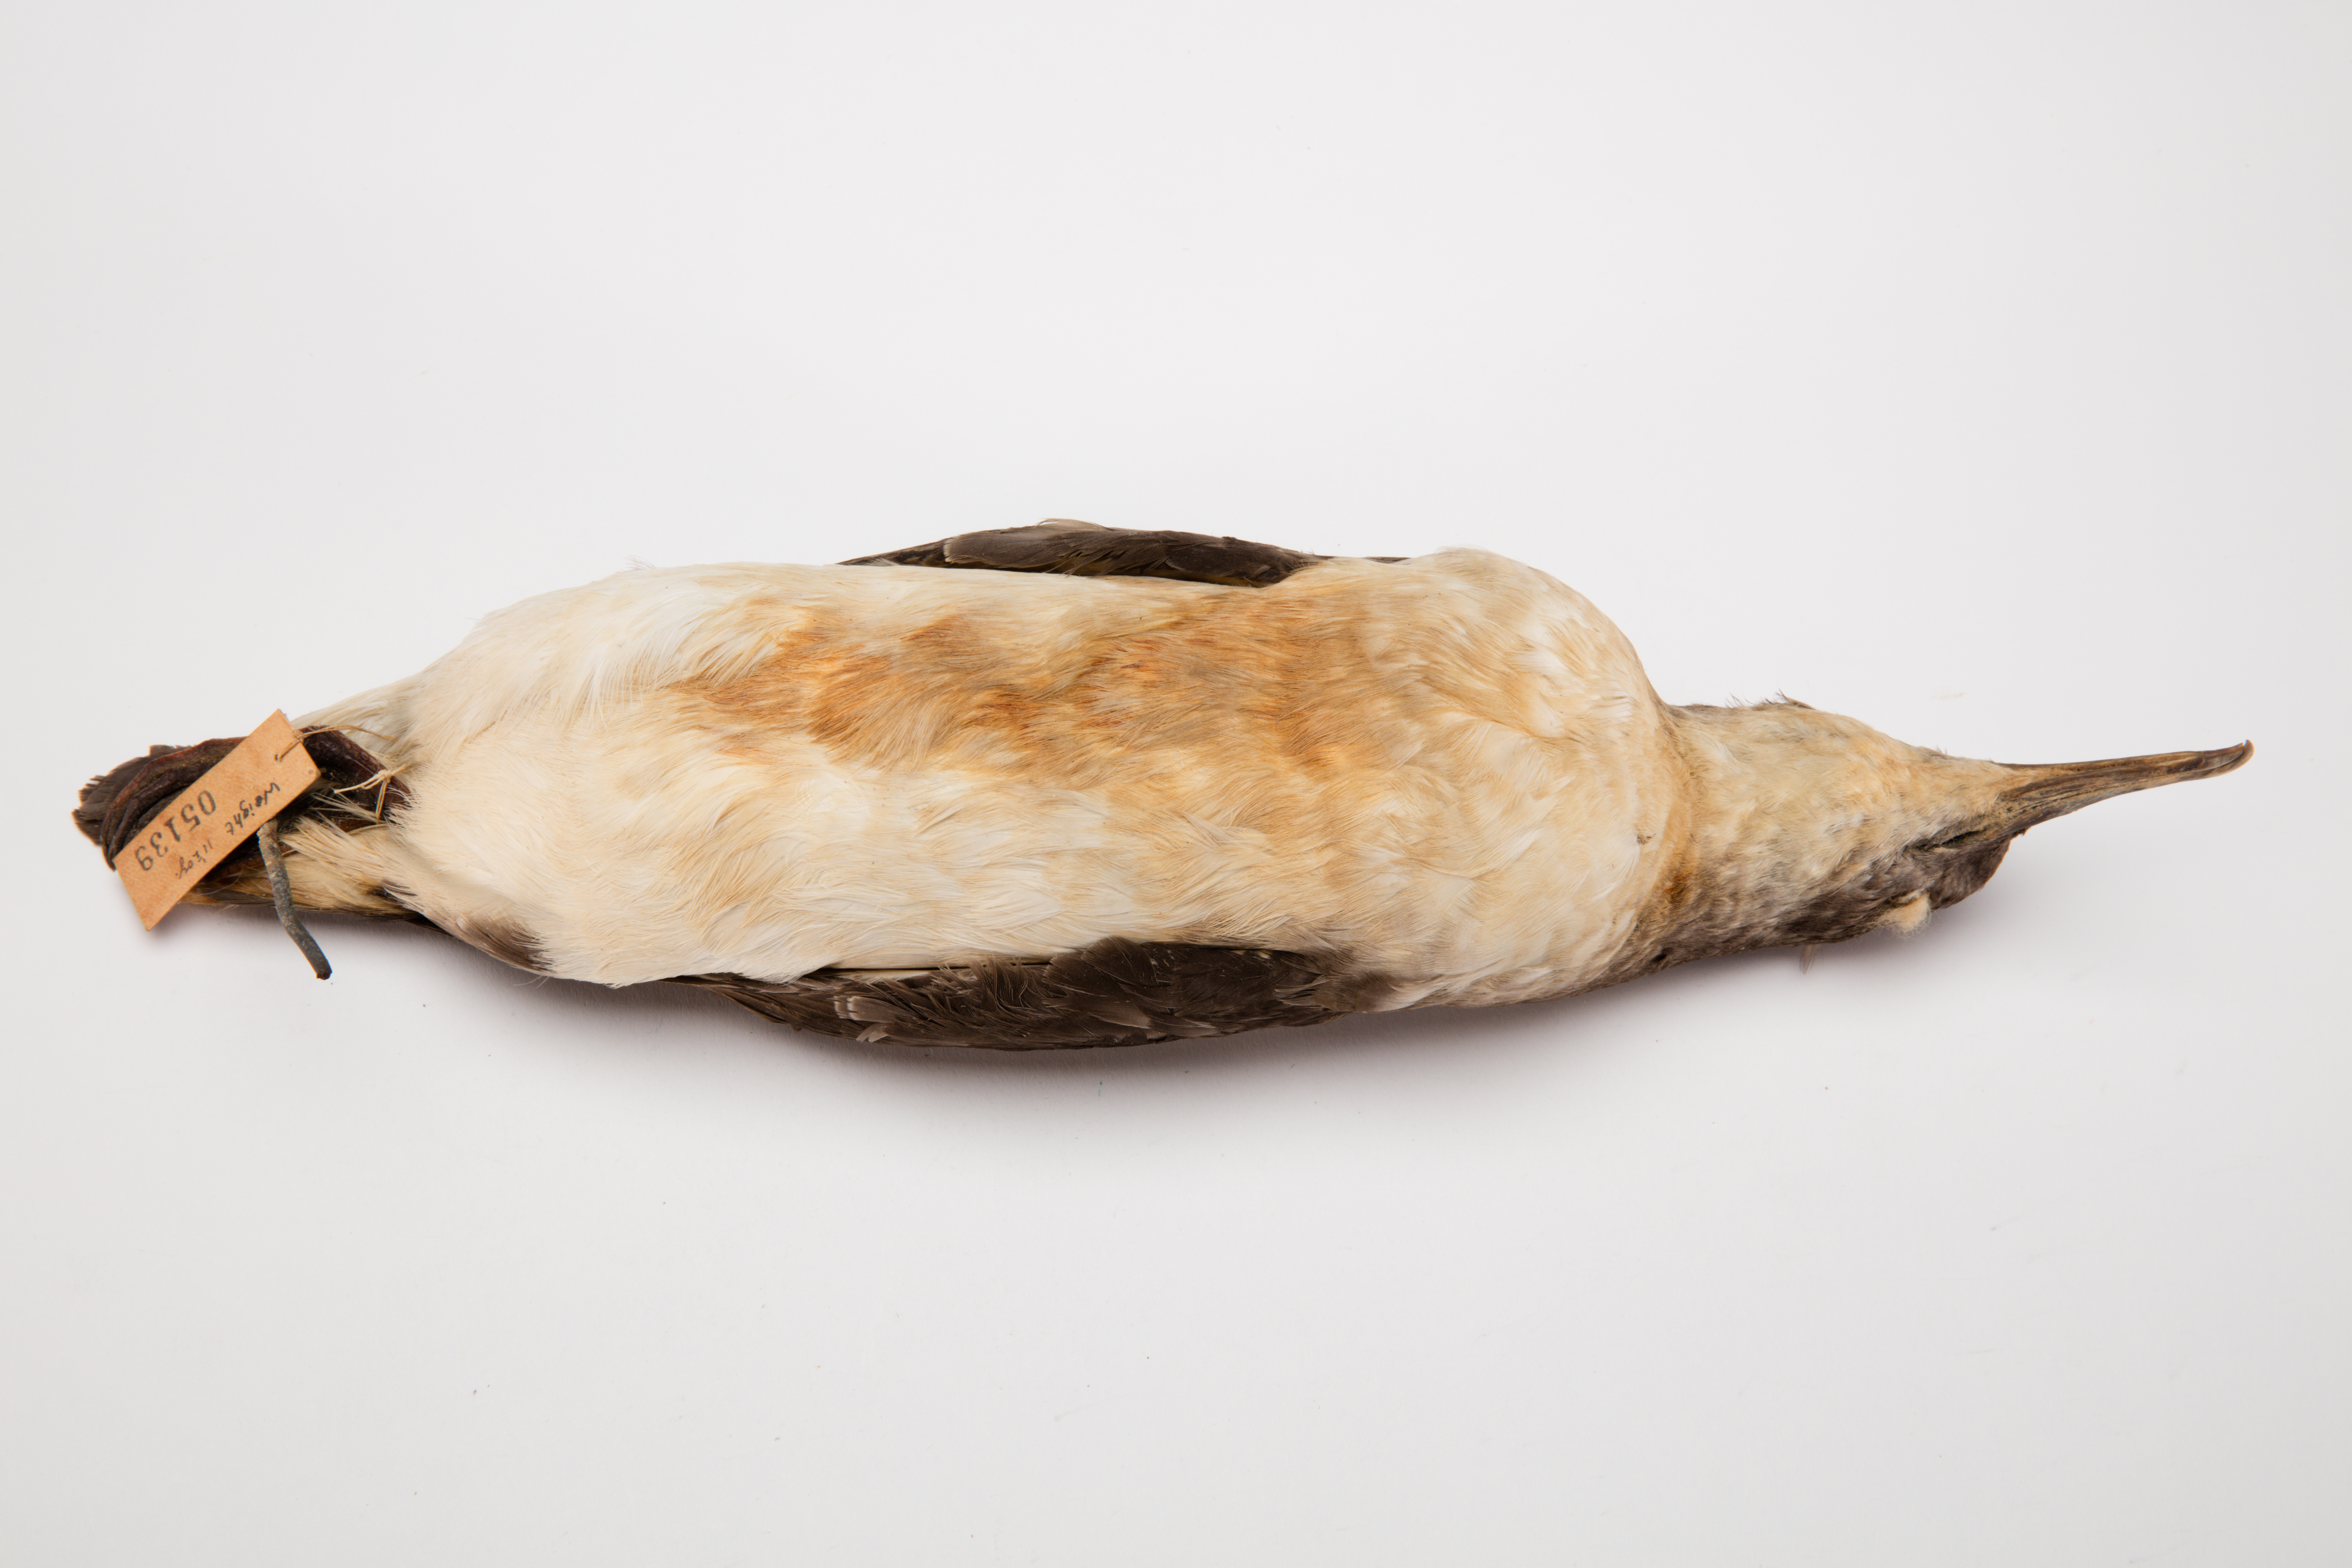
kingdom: Animalia
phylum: Chordata
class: Aves
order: Procellariiformes
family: Procellariidae
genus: Ardenna
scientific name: Ardenna
